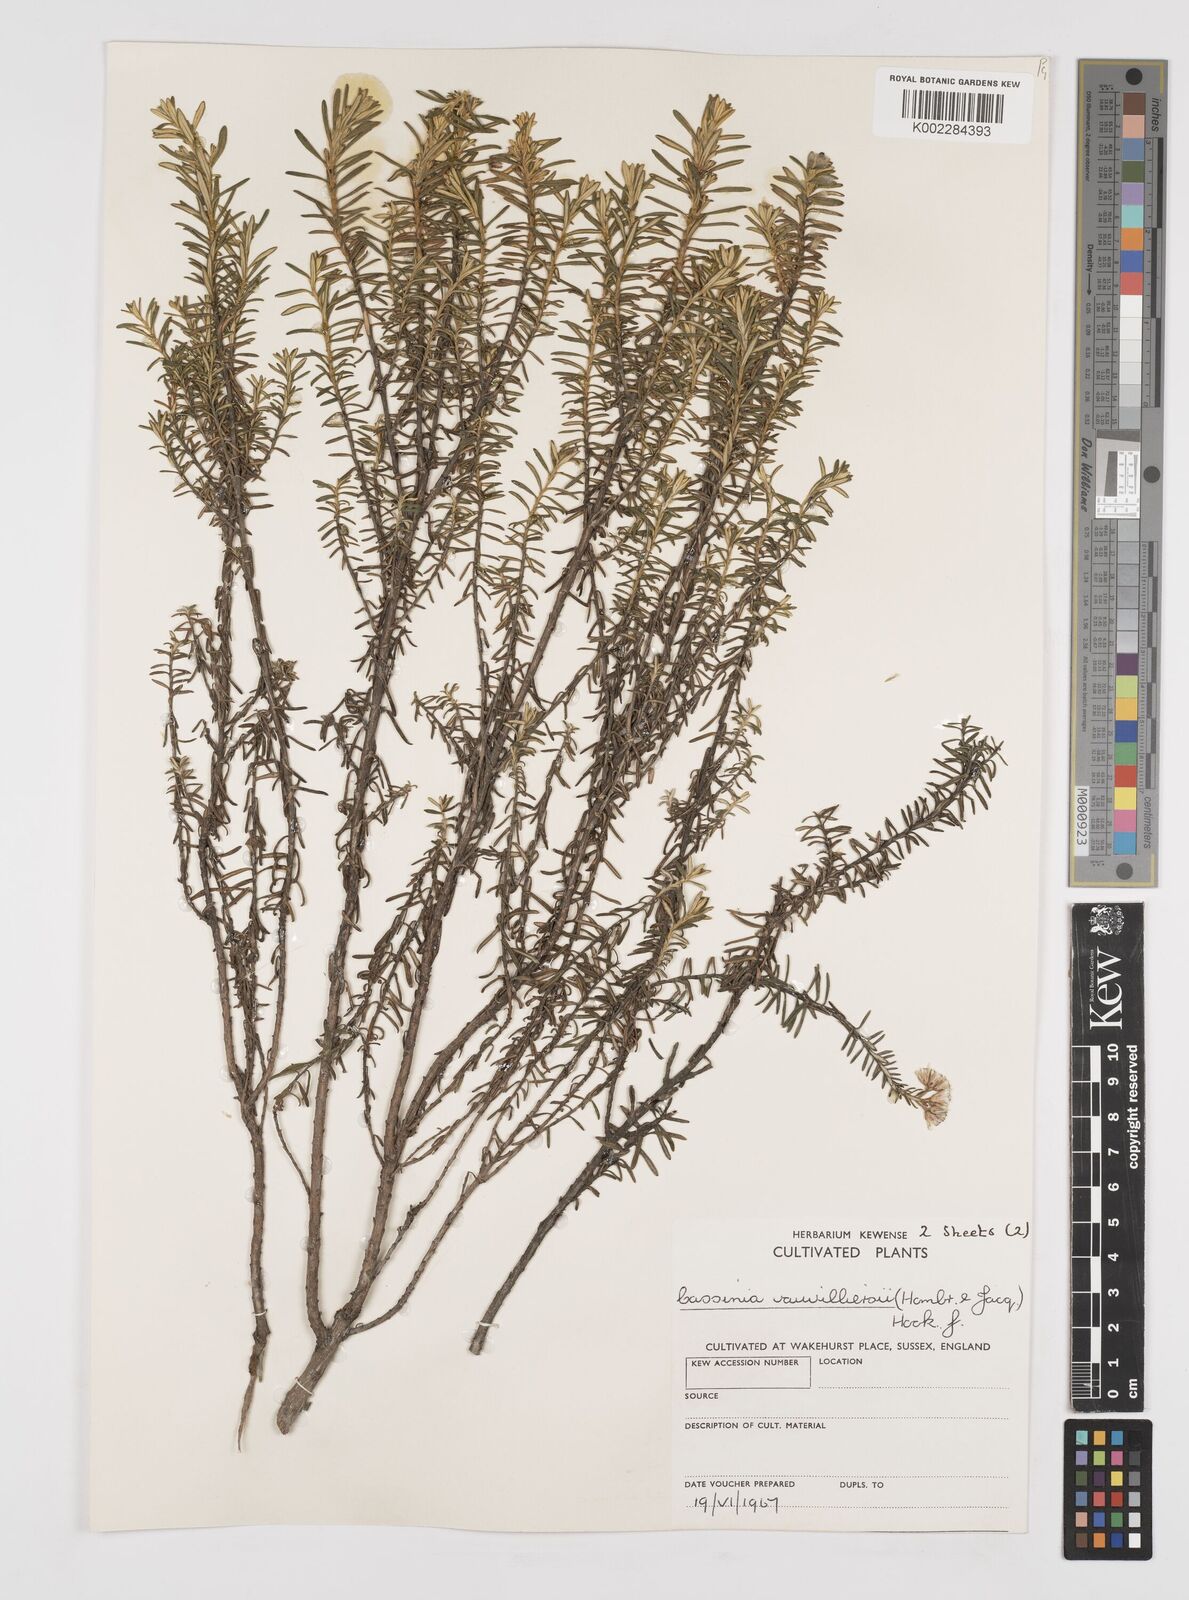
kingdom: Plantae
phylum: Tracheophyta
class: Magnoliopsida
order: Asterales
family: Asteraceae
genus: Ozothamnus
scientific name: Ozothamnus leptophyllus
